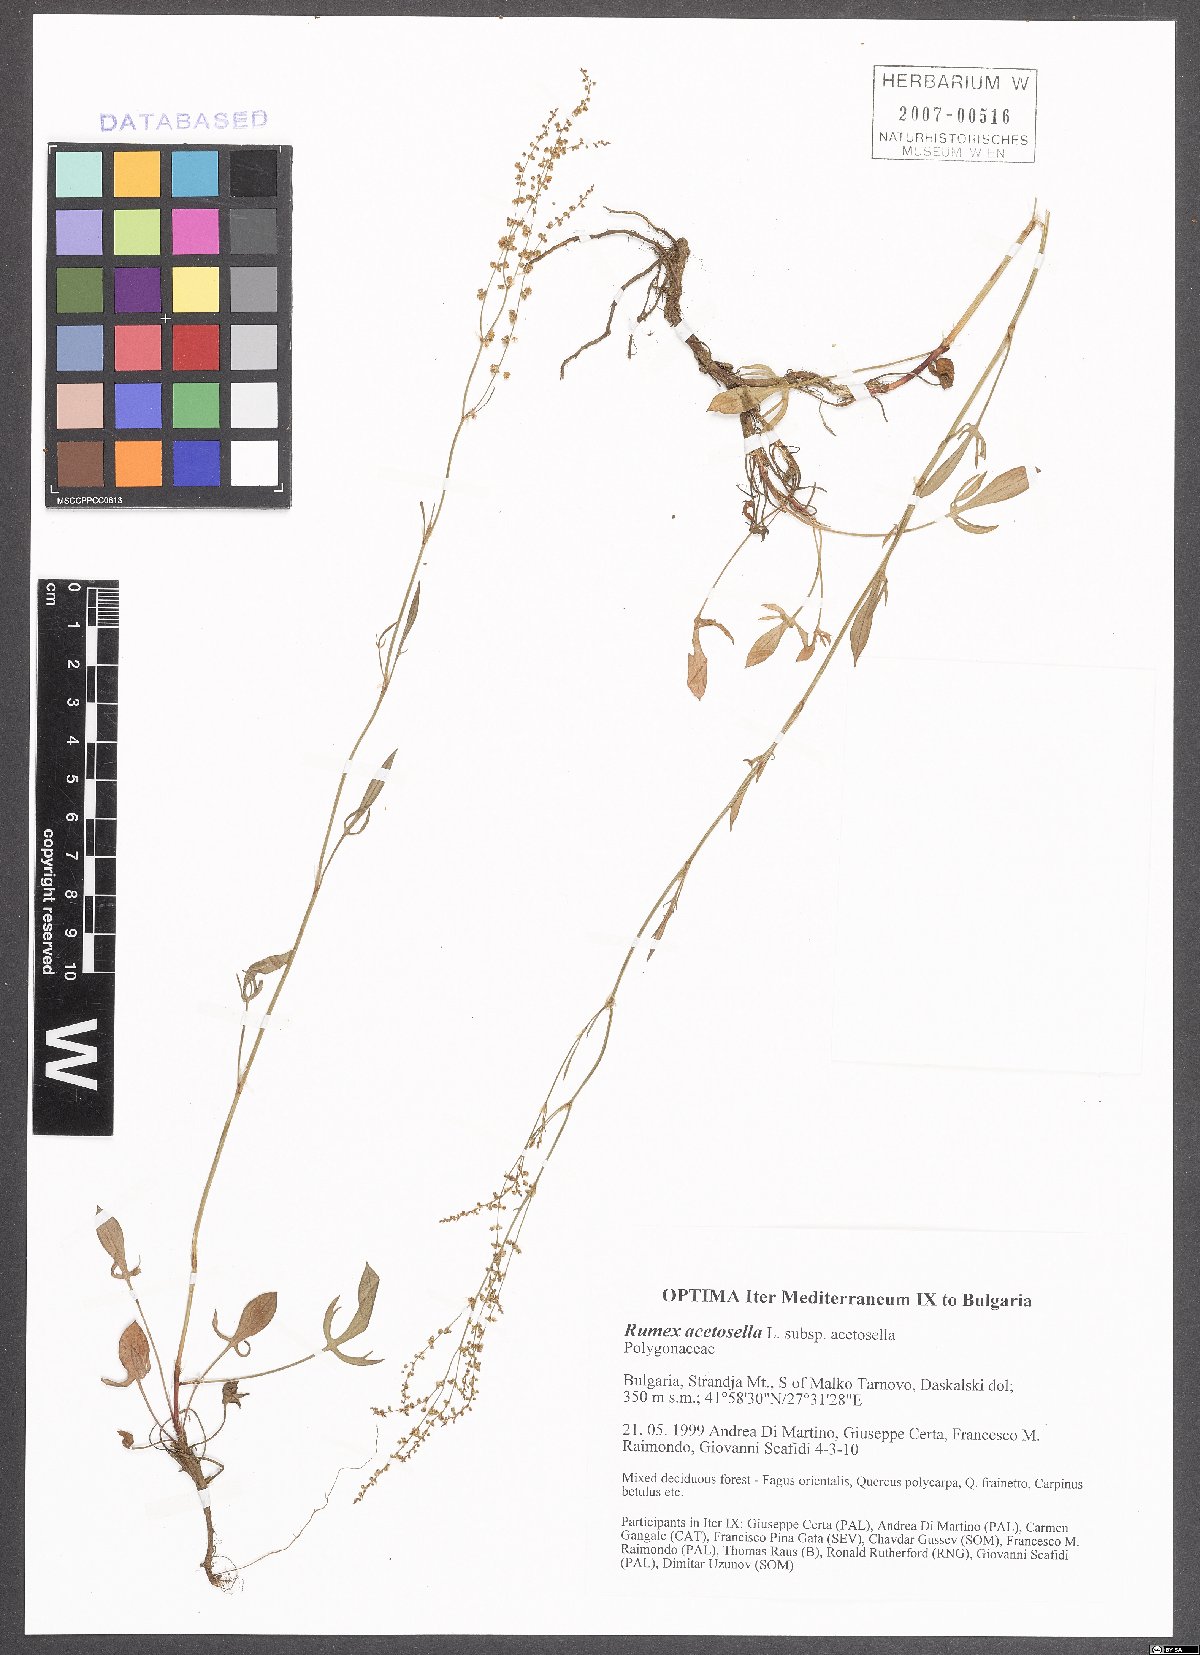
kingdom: Plantae
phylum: Tracheophyta
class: Magnoliopsida
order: Caryophyllales
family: Polygonaceae
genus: Rumex
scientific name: Rumex acetosella
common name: Common sheep sorrel
